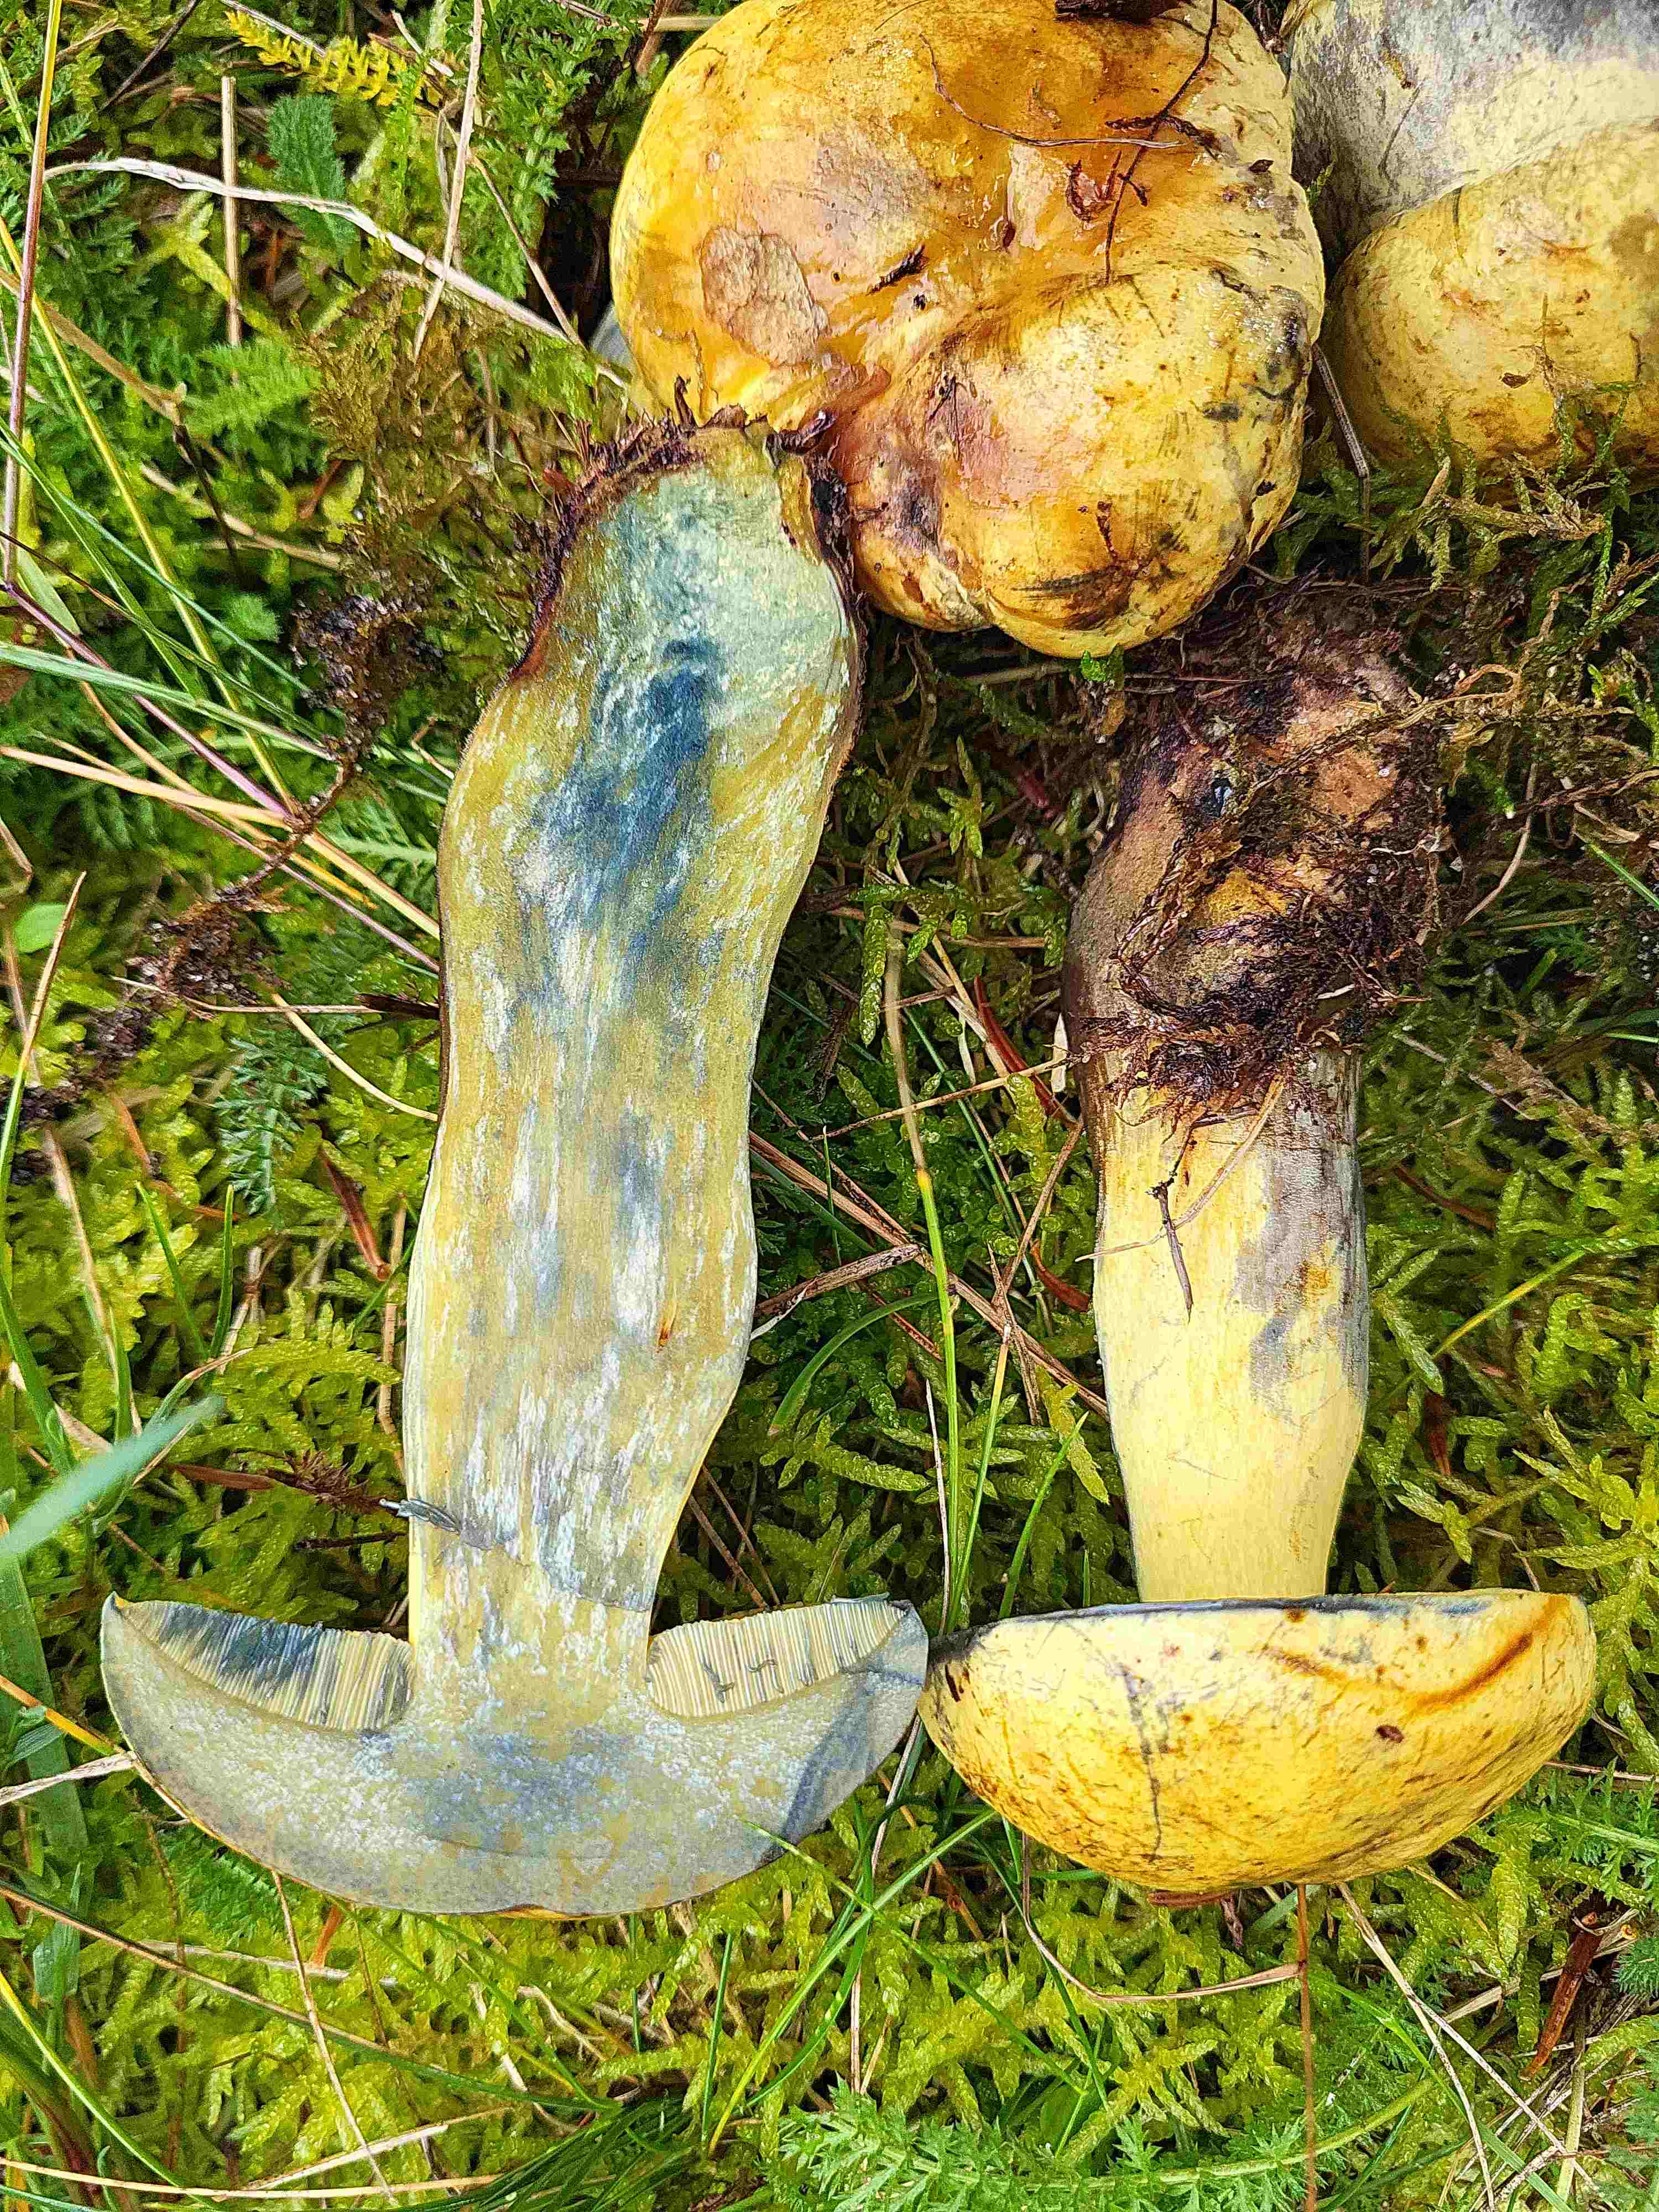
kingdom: Fungi
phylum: Basidiomycota
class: Agaricomycetes
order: Boletales
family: Boletaceae
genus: Neoboletus
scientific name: Neoboletus praestigiator
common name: gul indigorørhat
